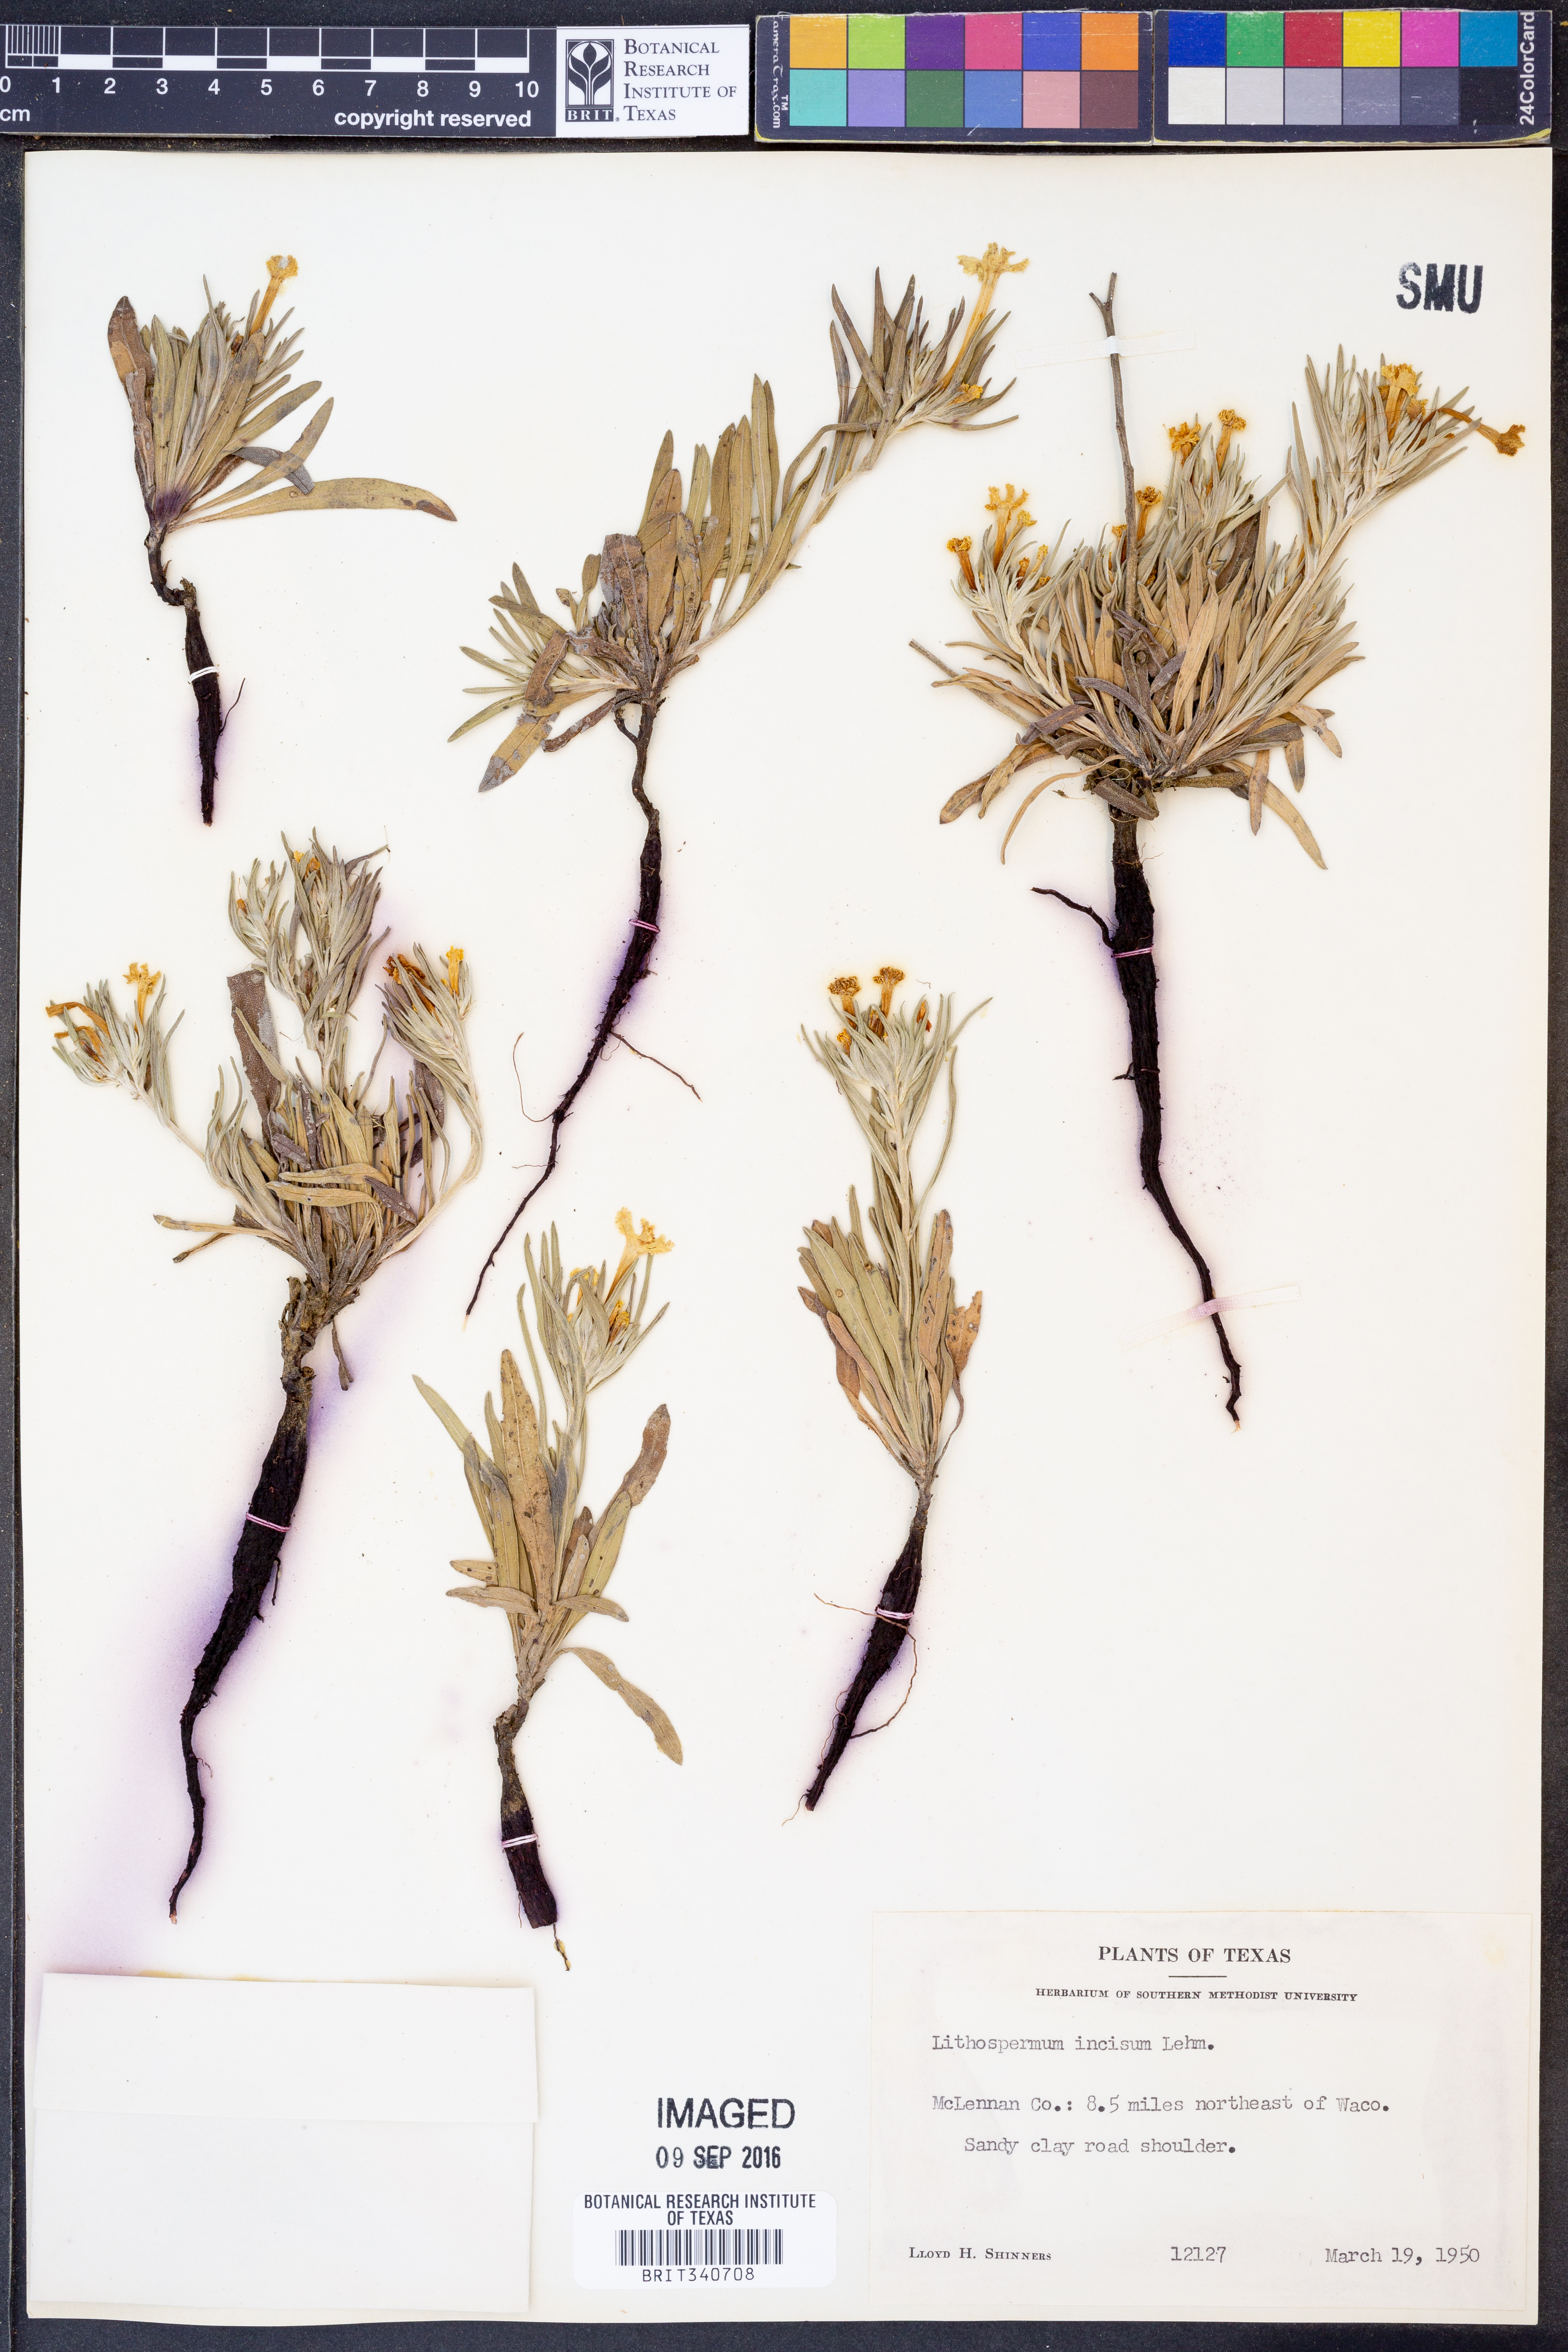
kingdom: Plantae
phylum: Tracheophyta
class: Magnoliopsida
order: Boraginales
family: Boraginaceae
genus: Lithospermum
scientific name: Lithospermum incisum
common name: Fringed gromwell
